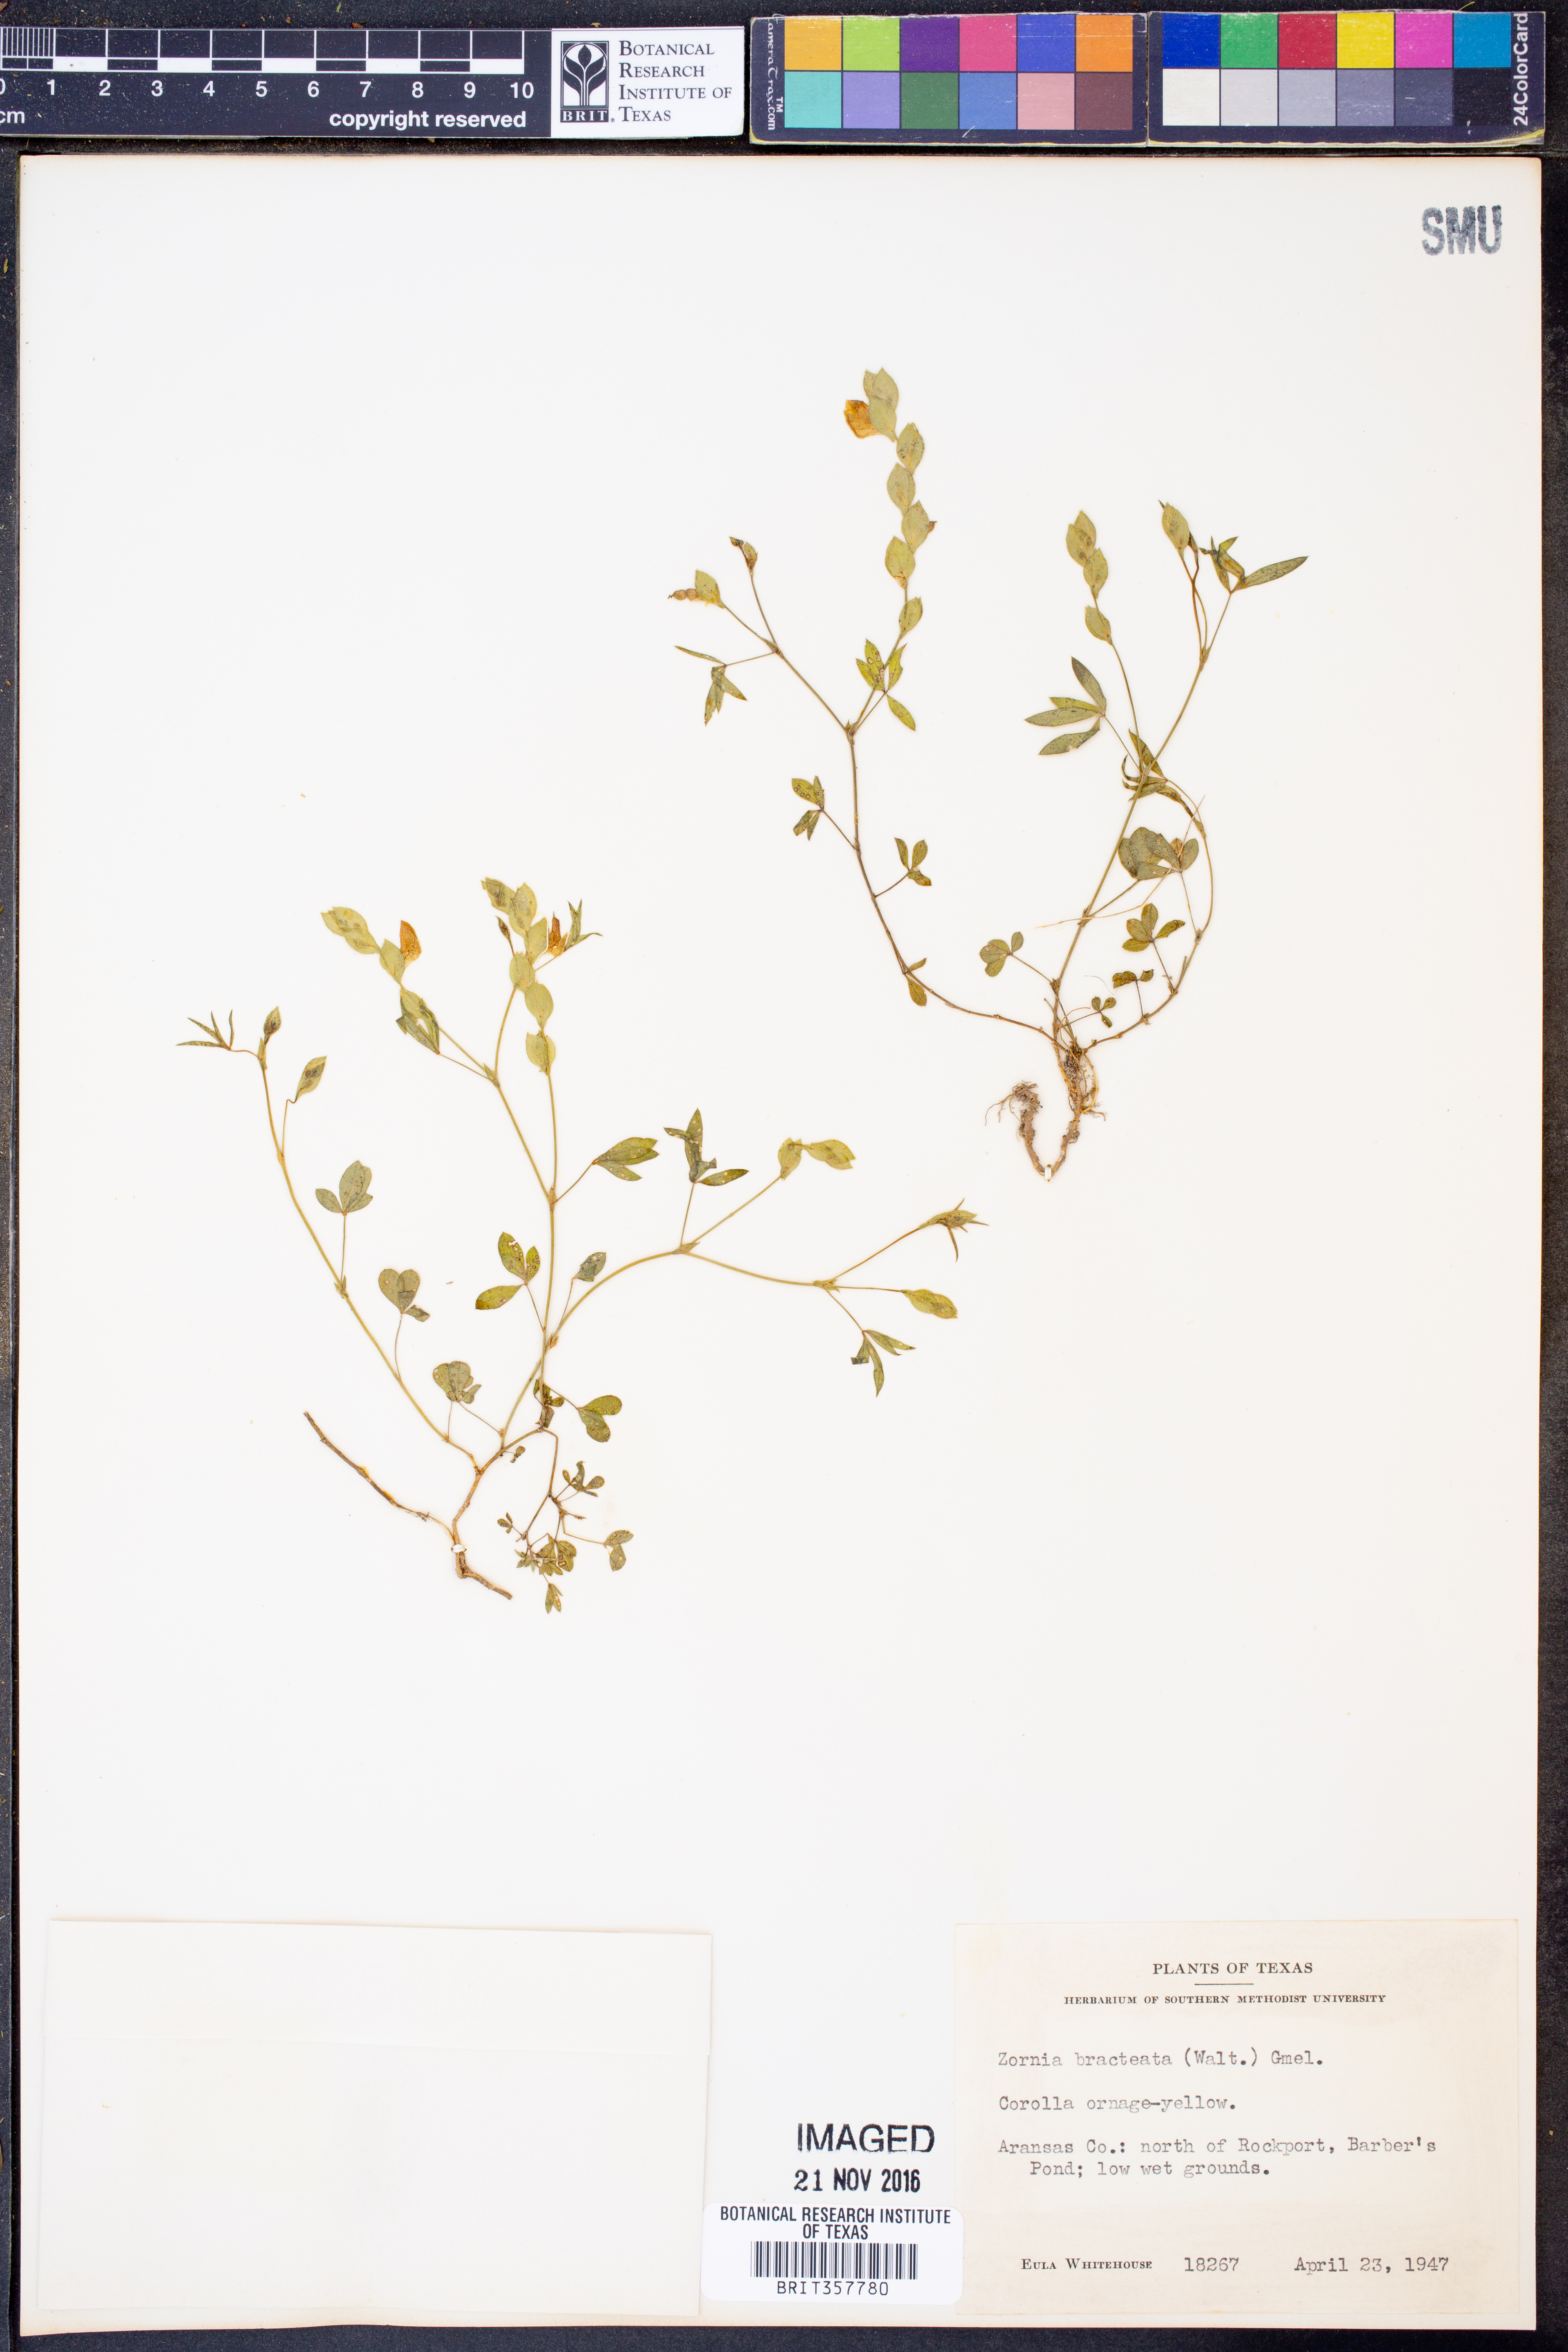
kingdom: Plantae
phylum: Tracheophyta
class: Magnoliopsida
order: Fabales
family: Fabaceae
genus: Zornia
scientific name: Zornia bracteata
